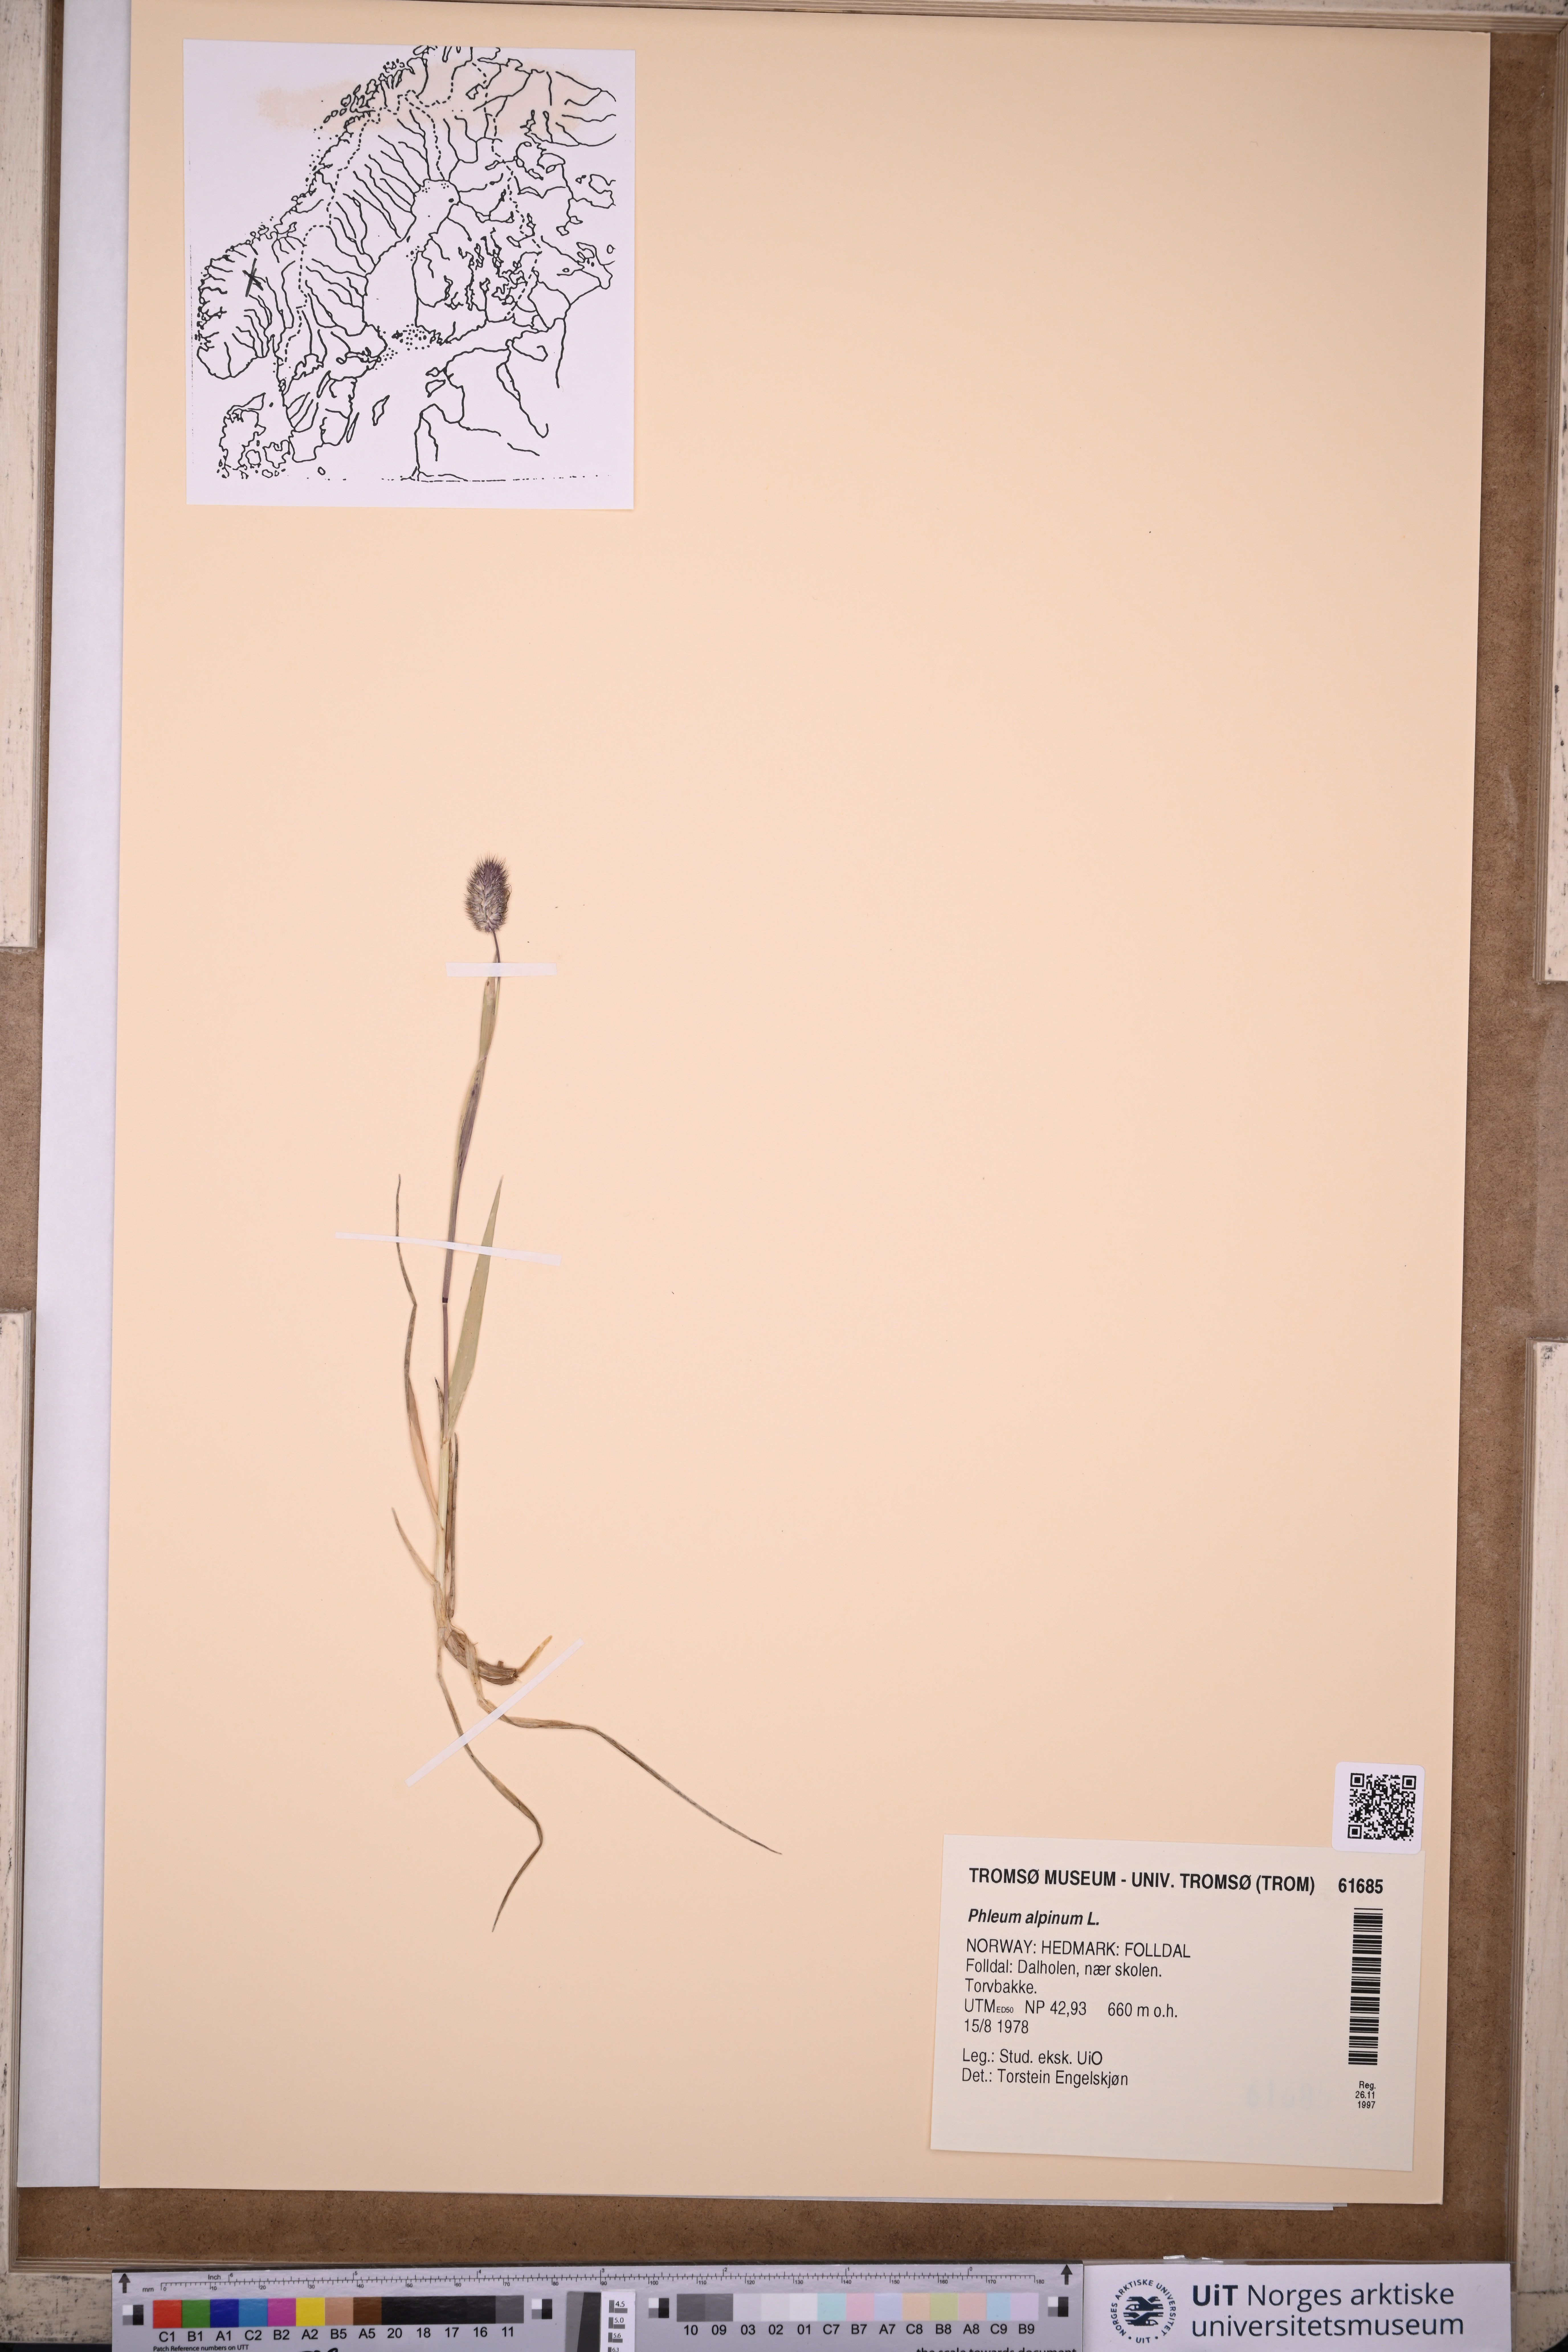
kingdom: Plantae
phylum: Tracheophyta
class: Liliopsida
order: Poales
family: Poaceae
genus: Phleum
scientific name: Phleum alpinum
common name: Alpine cat's-tail
